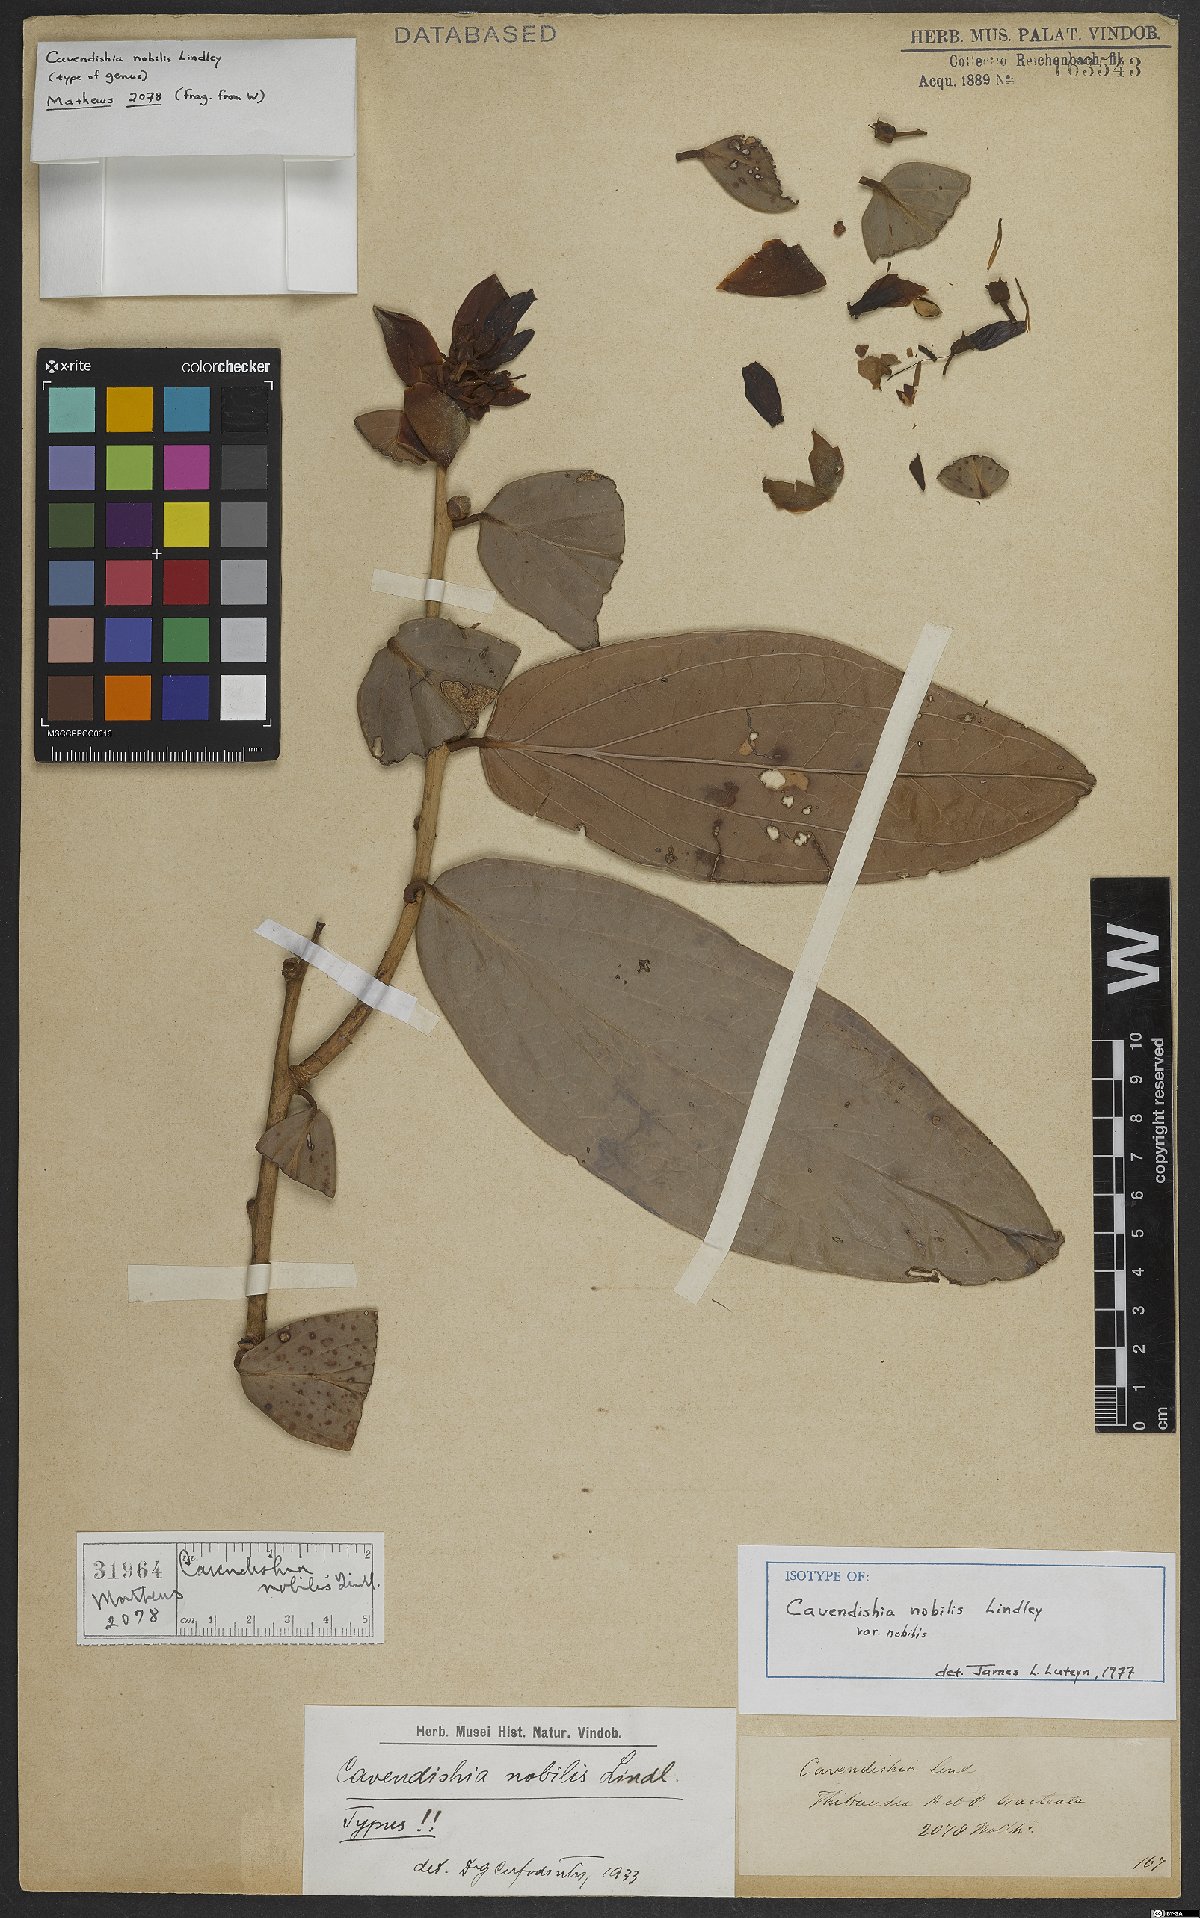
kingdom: Plantae
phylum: Tracheophyta
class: Magnoliopsida
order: Ericales
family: Ericaceae
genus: Cavendishia
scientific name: Cavendishia nobilis
